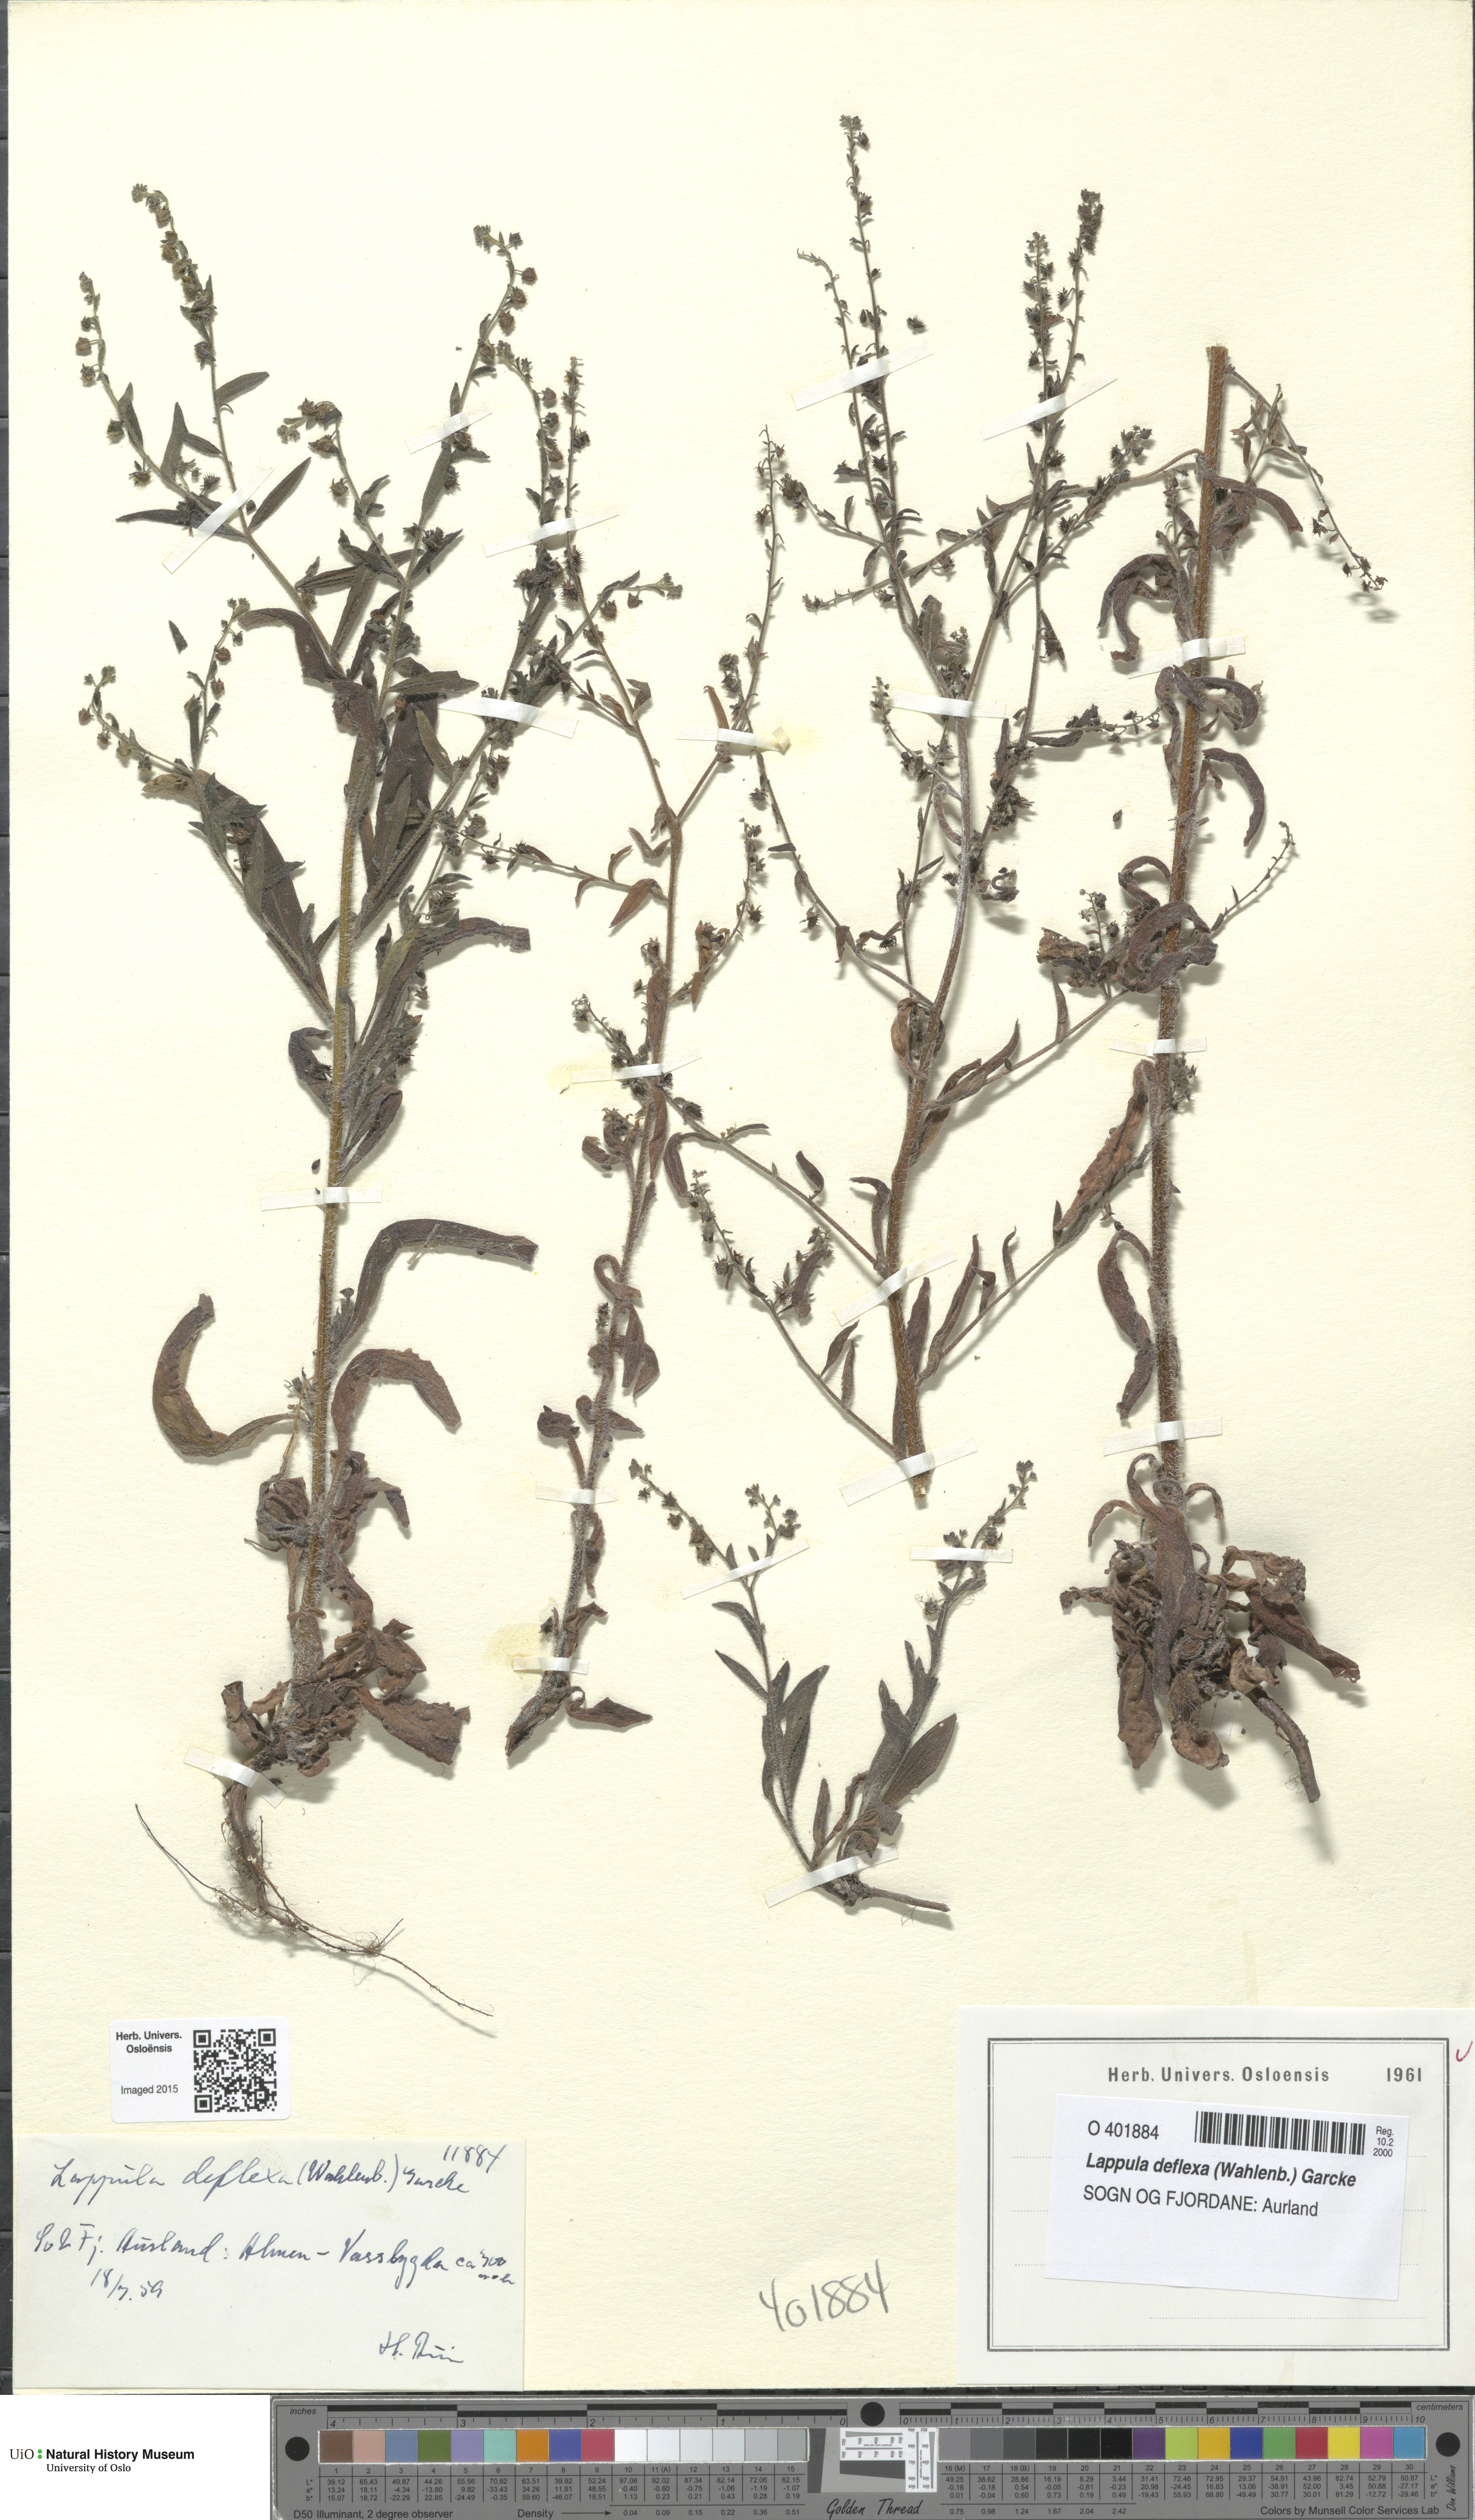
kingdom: Plantae
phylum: Tracheophyta
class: Magnoliopsida
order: Boraginales
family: Boraginaceae
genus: Hackelia
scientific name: Hackelia deflexa
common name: Nodding stickseed
